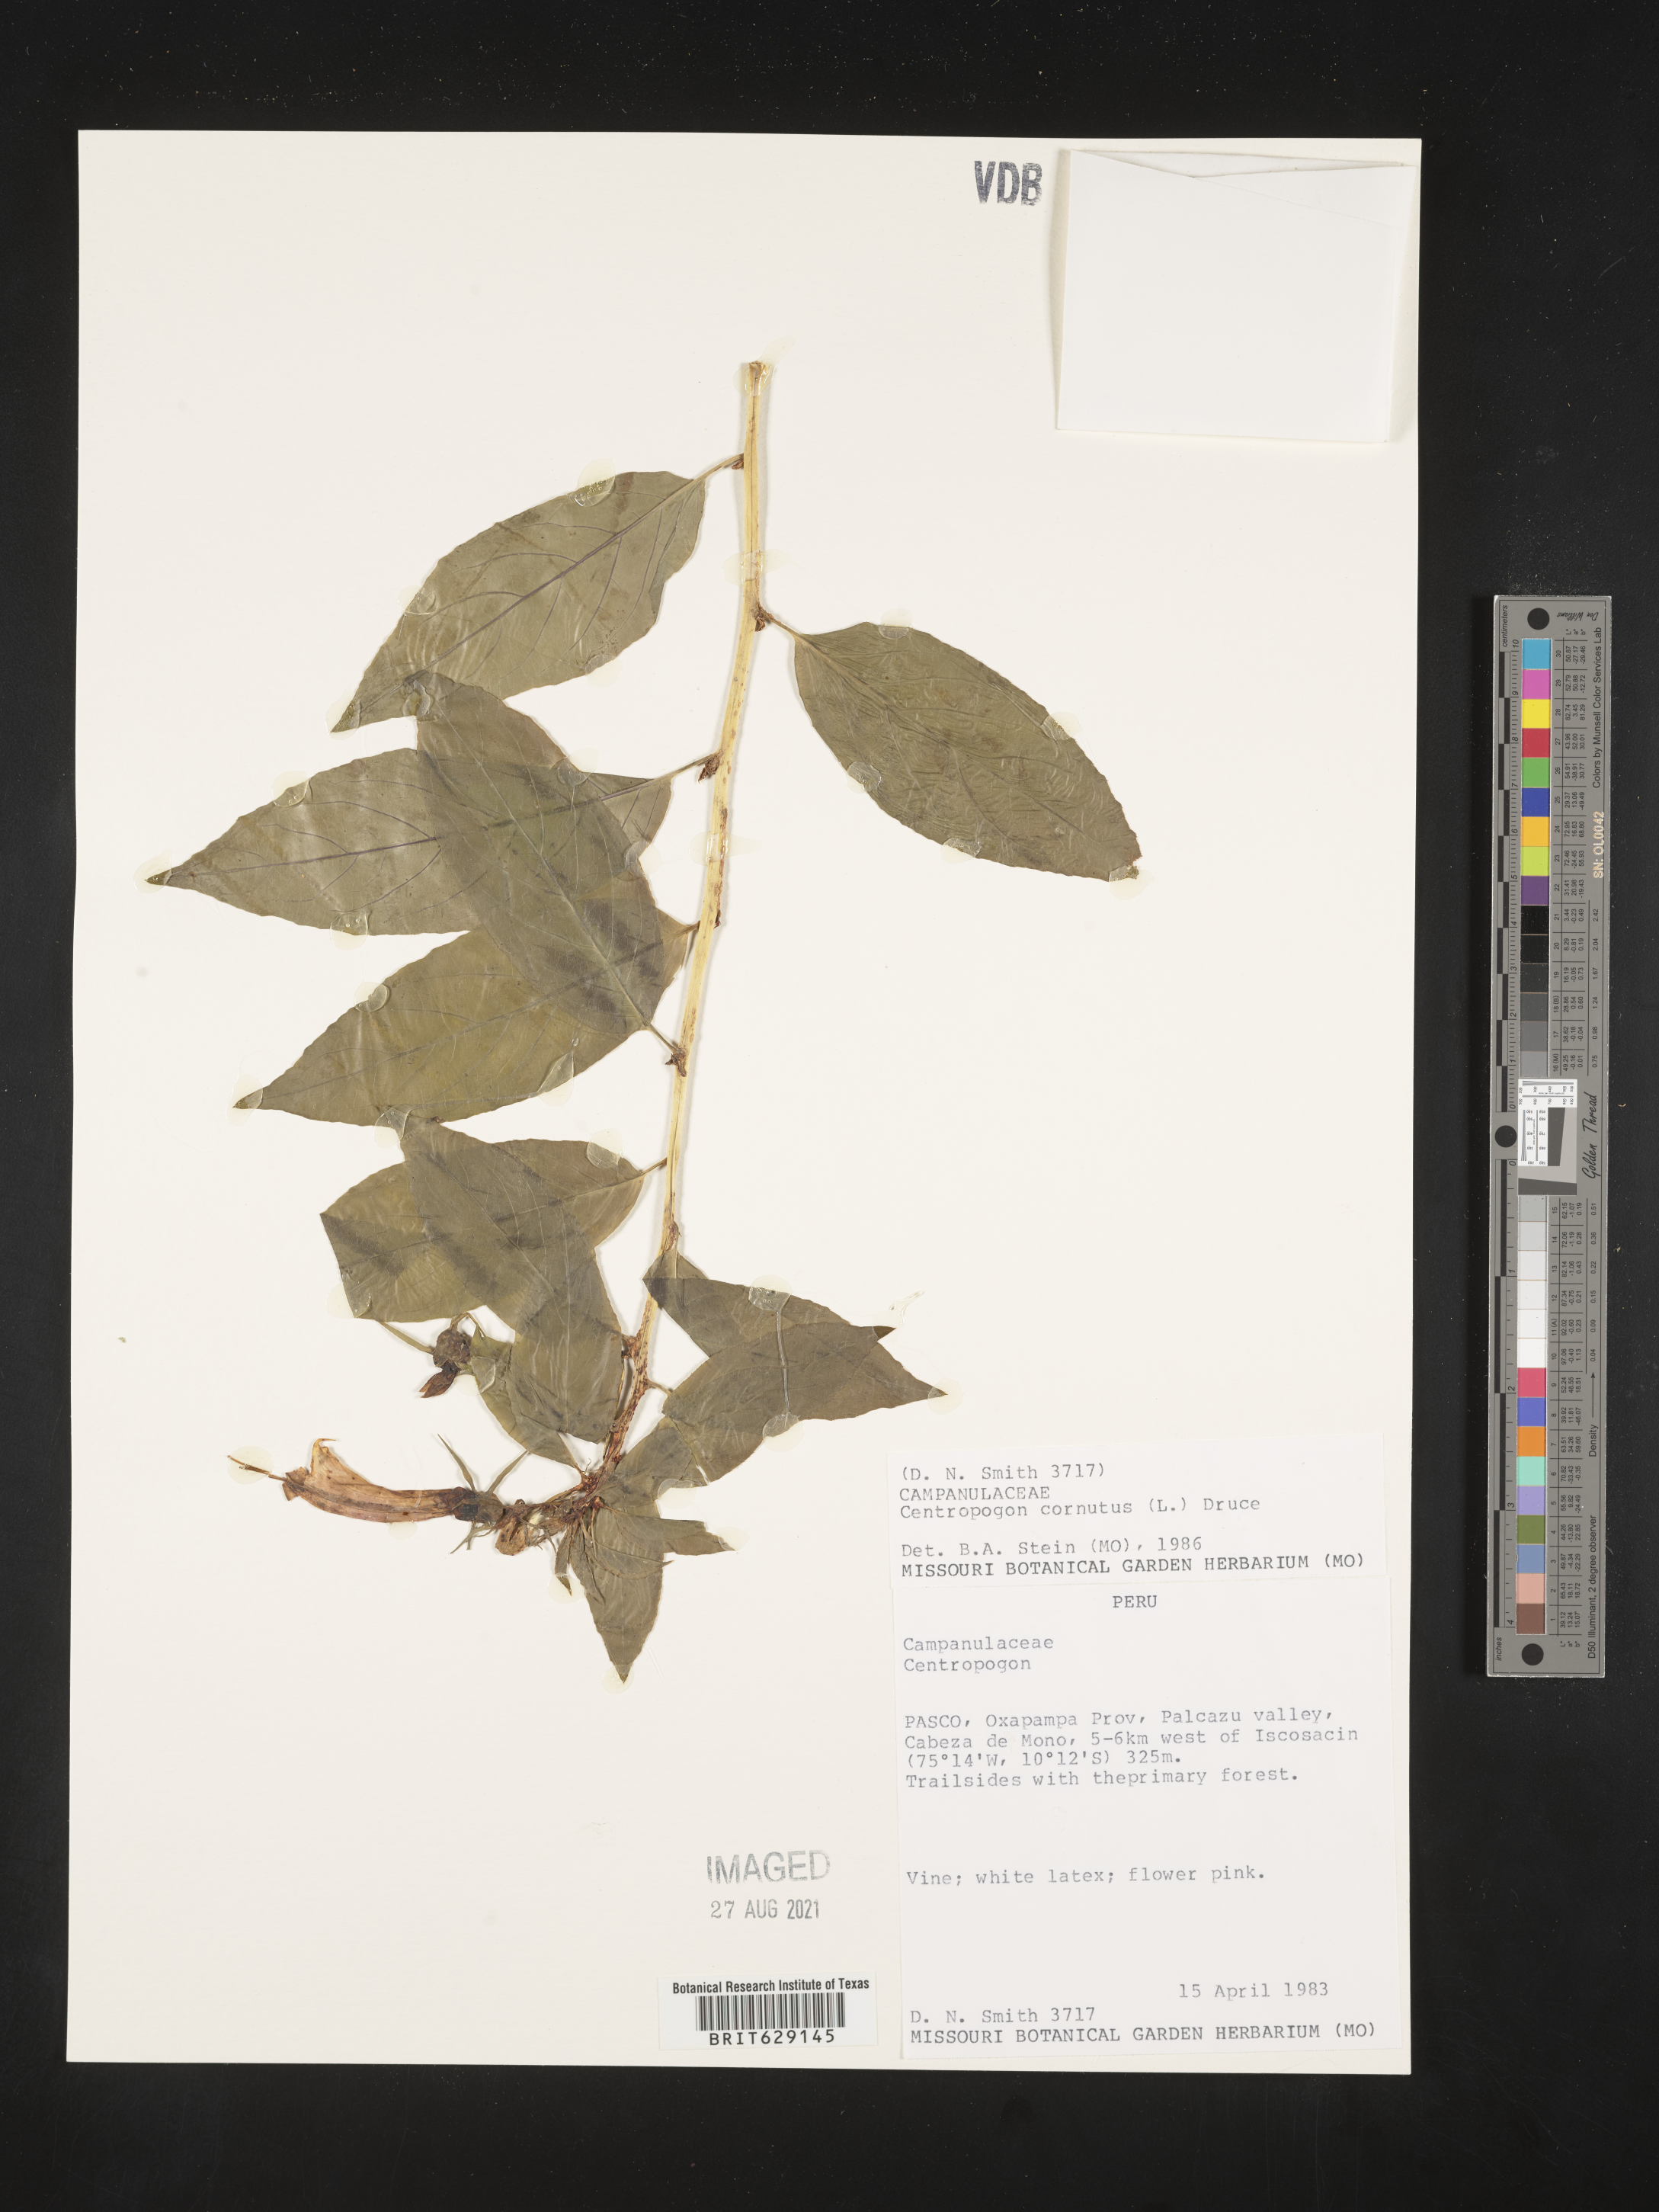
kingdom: Plantae
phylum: Tracheophyta
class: Magnoliopsida
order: Asterales
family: Campanulaceae
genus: Centropogon
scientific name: Centropogon cornutus
